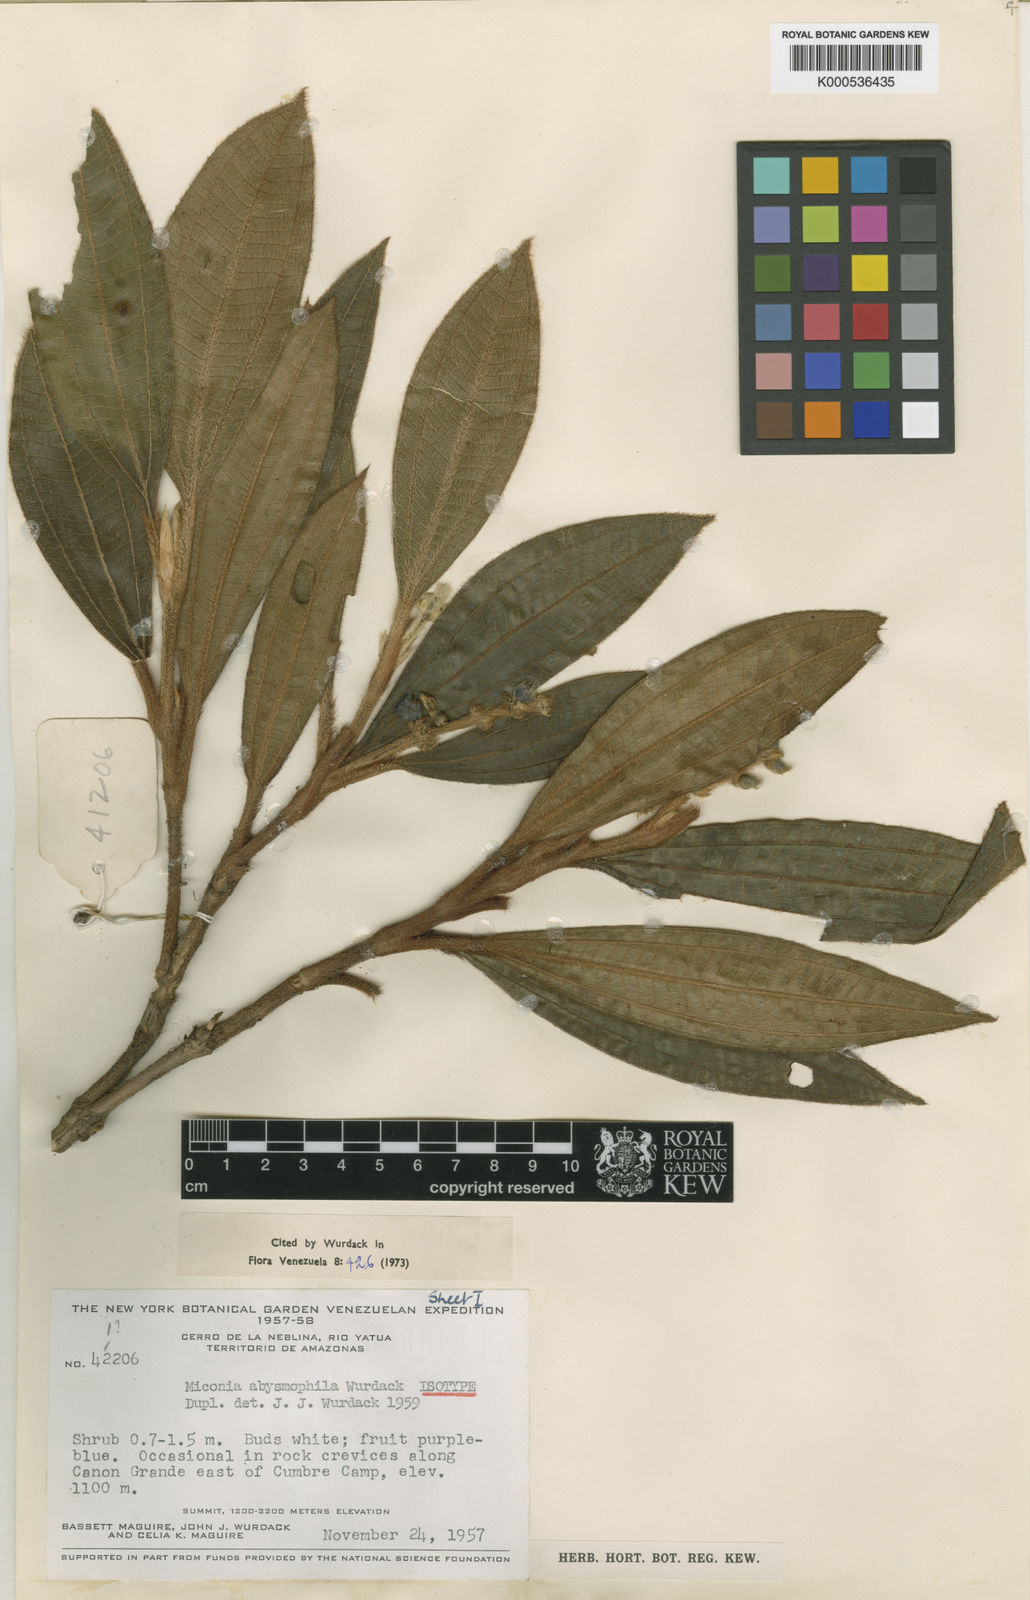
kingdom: Plantae
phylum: Tracheophyta
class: Magnoliopsida
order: Myrtales
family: Melastomataceae
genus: Miconia
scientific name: Miconia abysmophila
